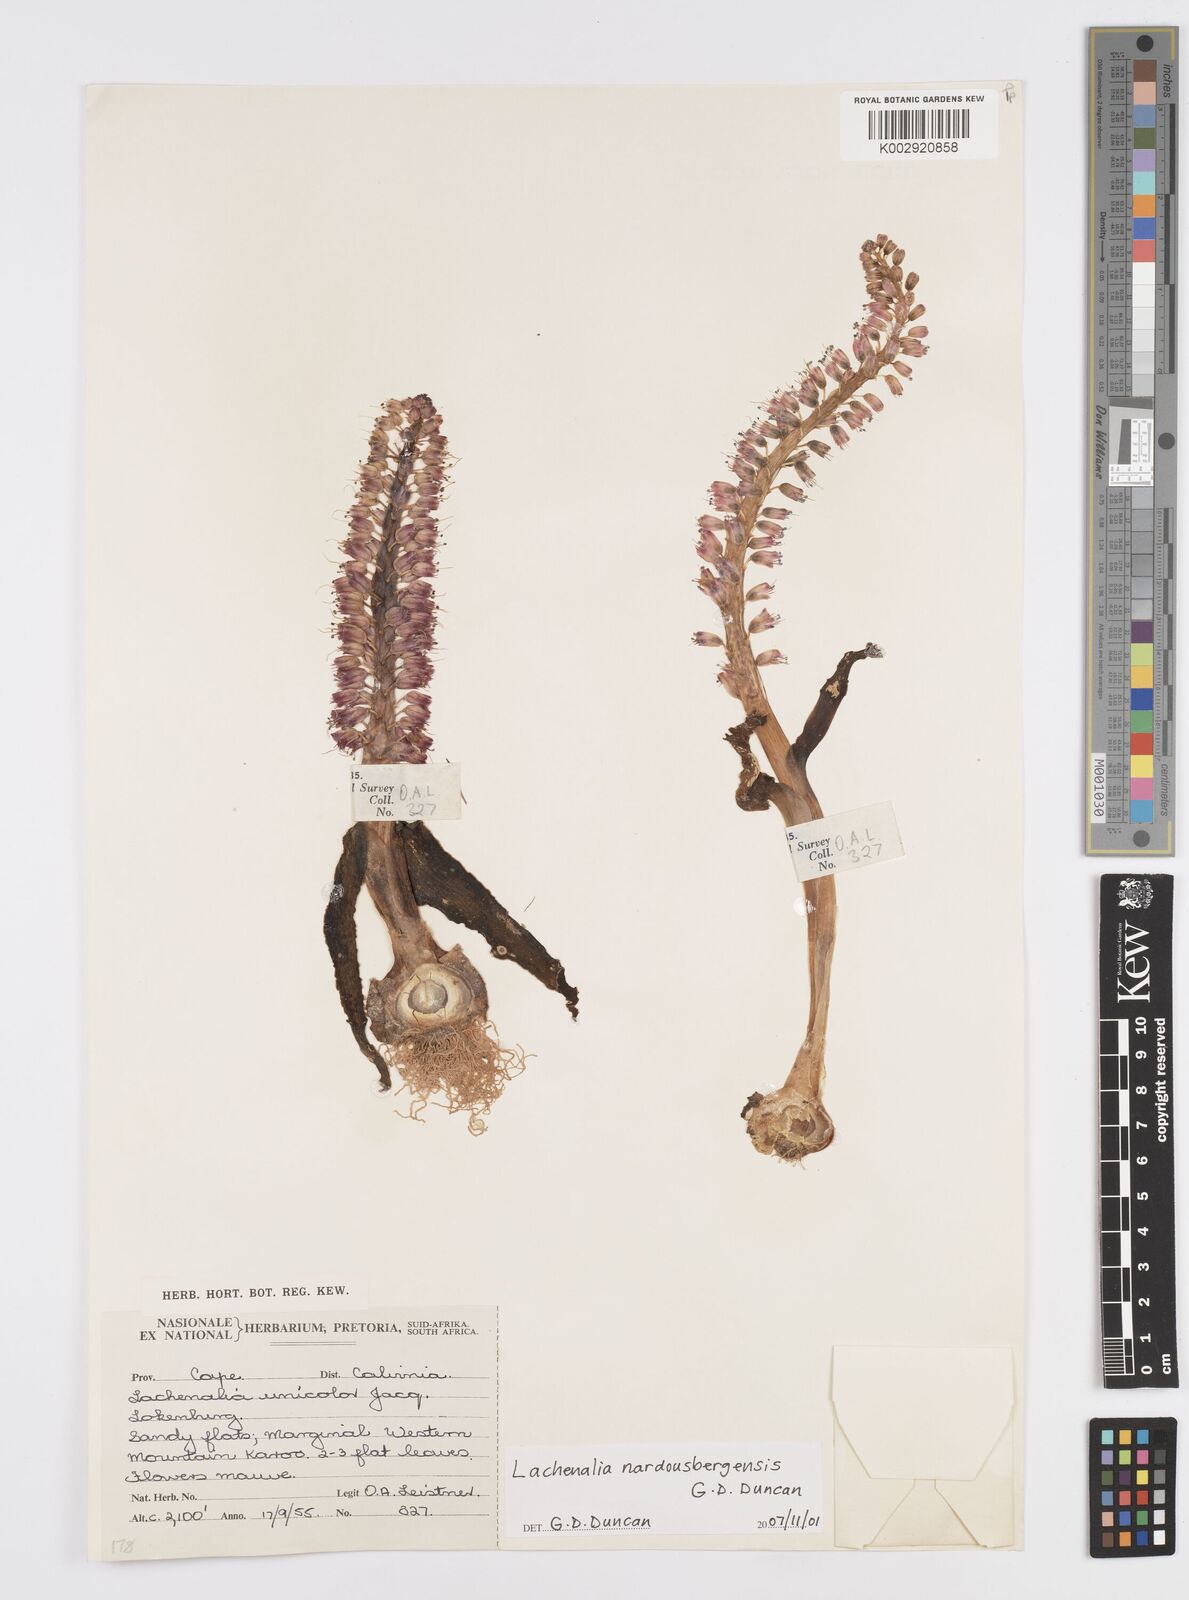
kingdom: Plantae
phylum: Tracheophyta
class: Liliopsida
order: Asparagales
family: Asparagaceae
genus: Lachenalia
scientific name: Lachenalia nardousbergensis
